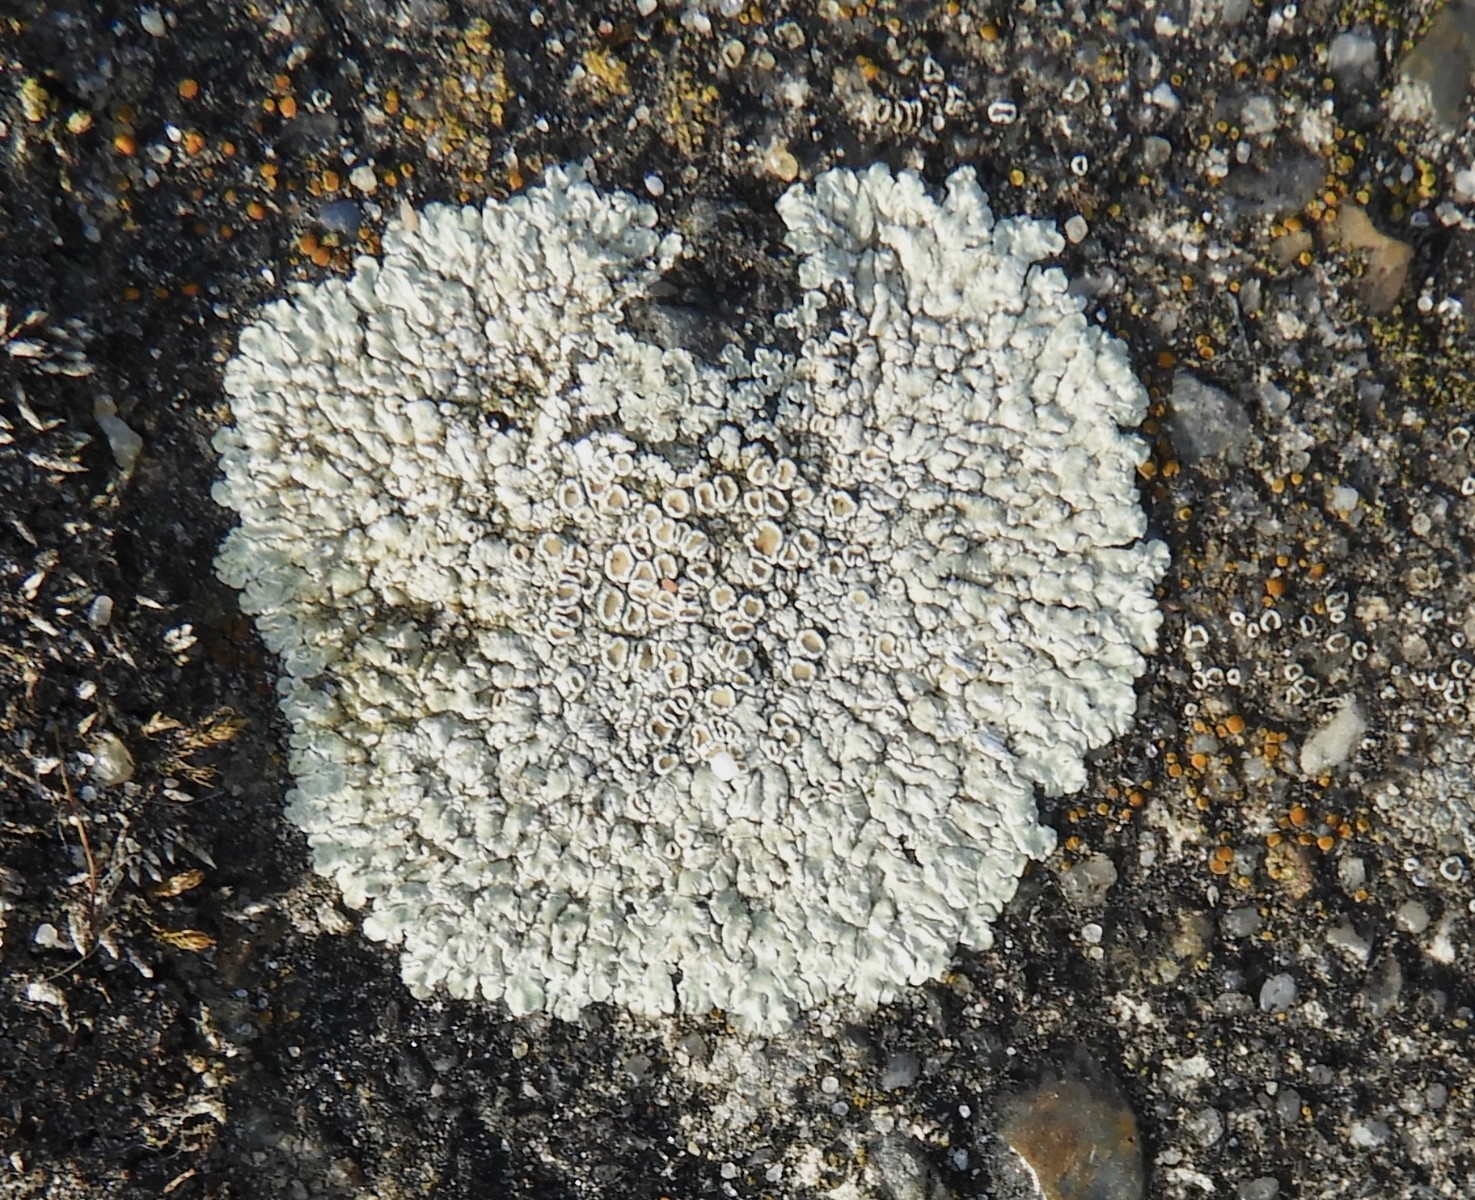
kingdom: Fungi
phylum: Ascomycota
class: Lecanoromycetes
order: Lecanorales
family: Lecanoraceae
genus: Protoparmeliopsis
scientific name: Protoparmeliopsis muralis
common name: randfliget kantskivelav
